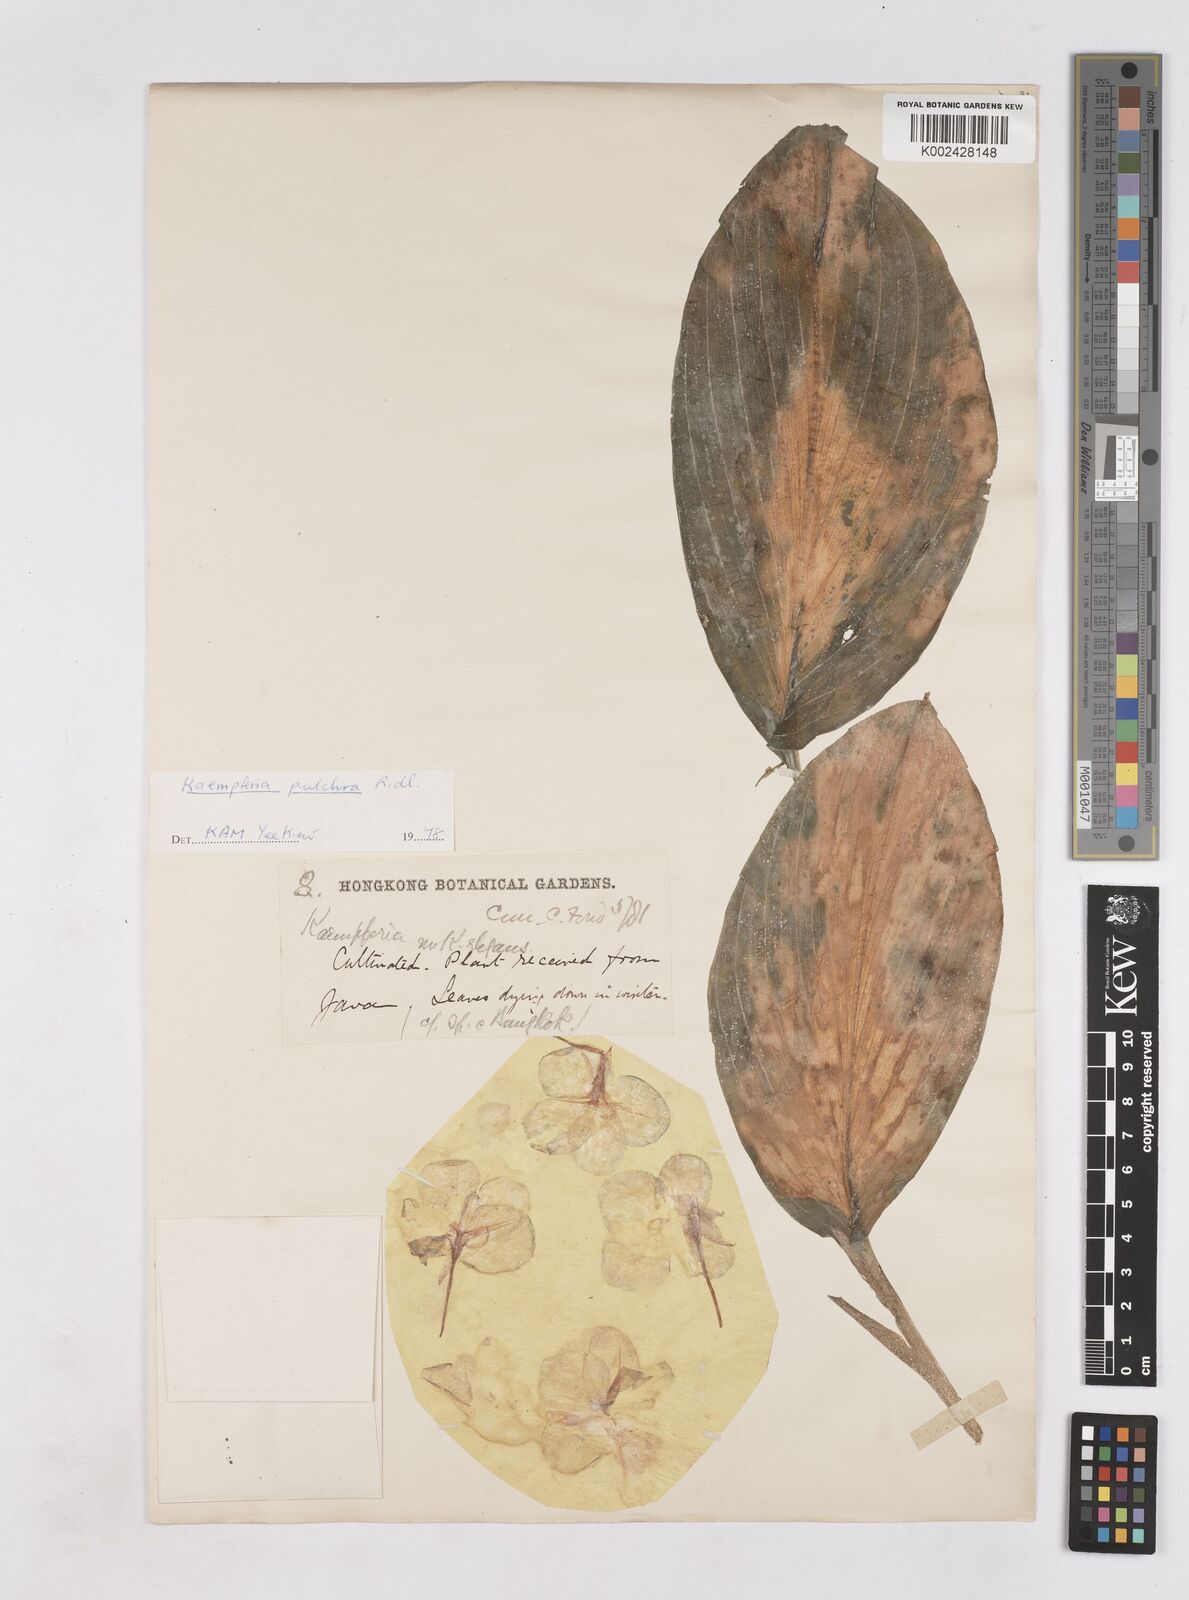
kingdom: Plantae
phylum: Tracheophyta
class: Liliopsida
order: Zingiberales
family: Zingiberaceae
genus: Kaempferia
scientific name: Kaempferia elegans
